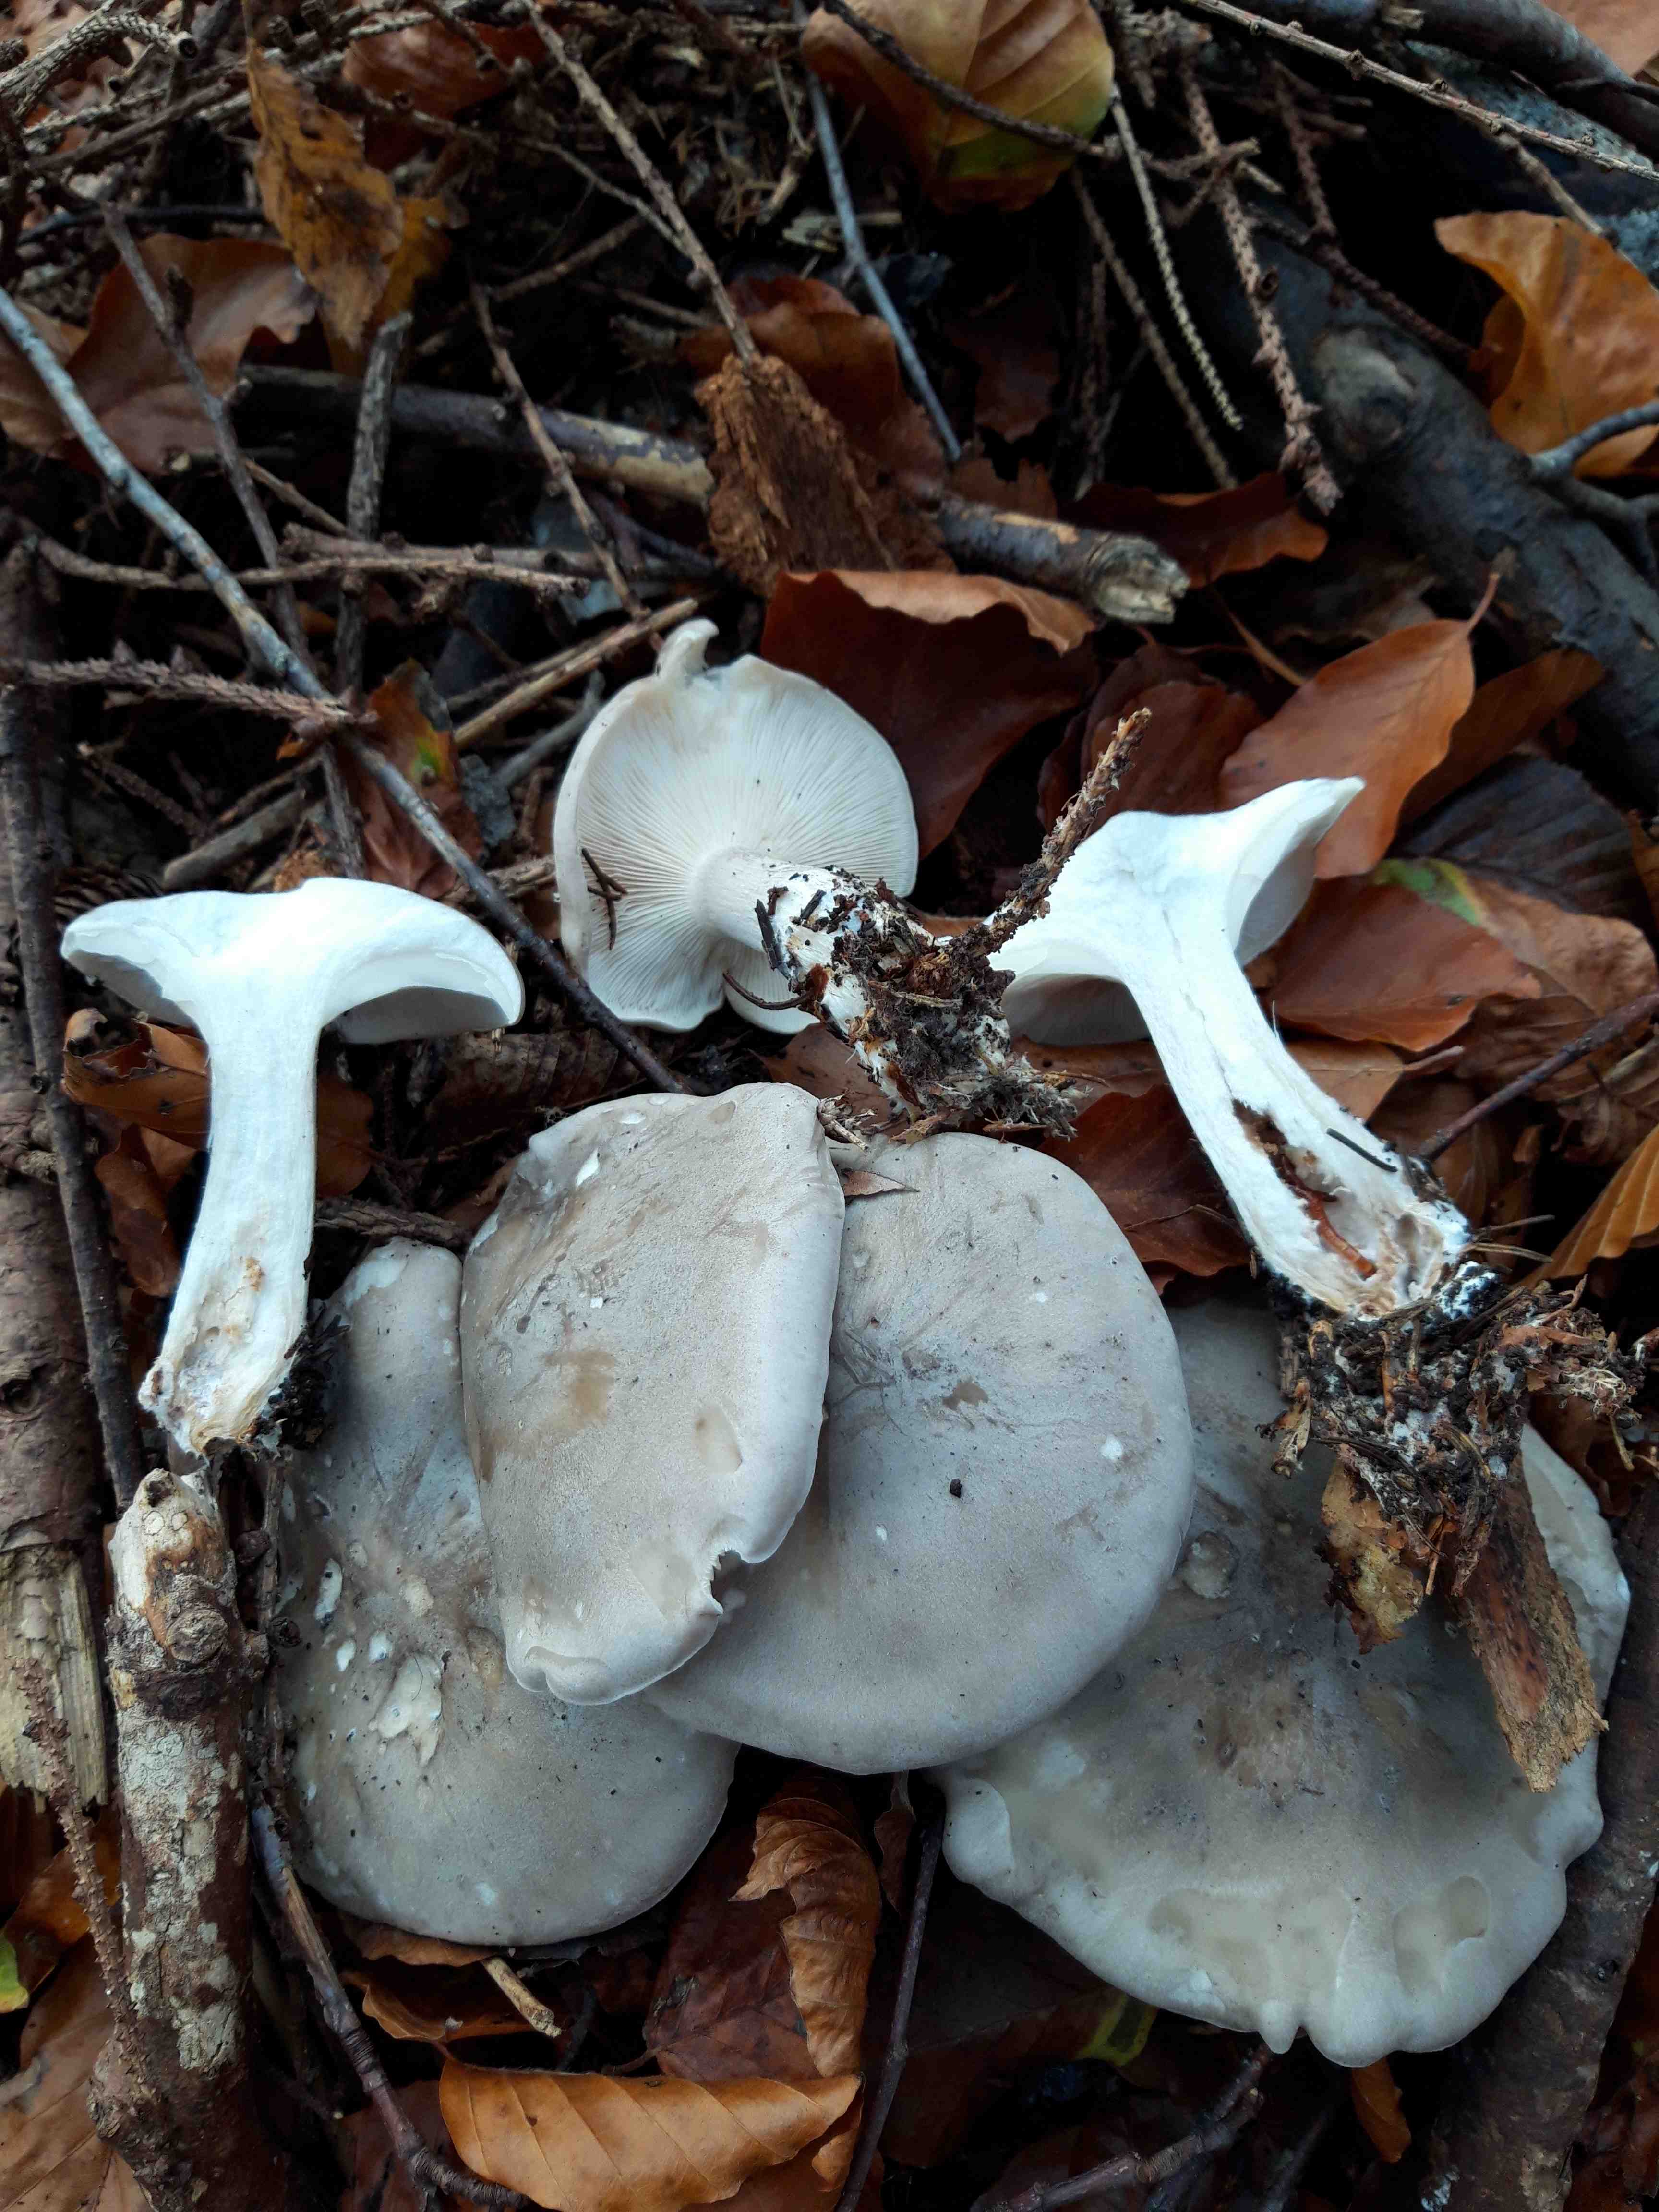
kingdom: Fungi
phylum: Basidiomycota
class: Agaricomycetes
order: Agaricales
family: Tricholomataceae
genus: Clitocybe
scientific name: Clitocybe nebularis
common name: tåge-tragthat
